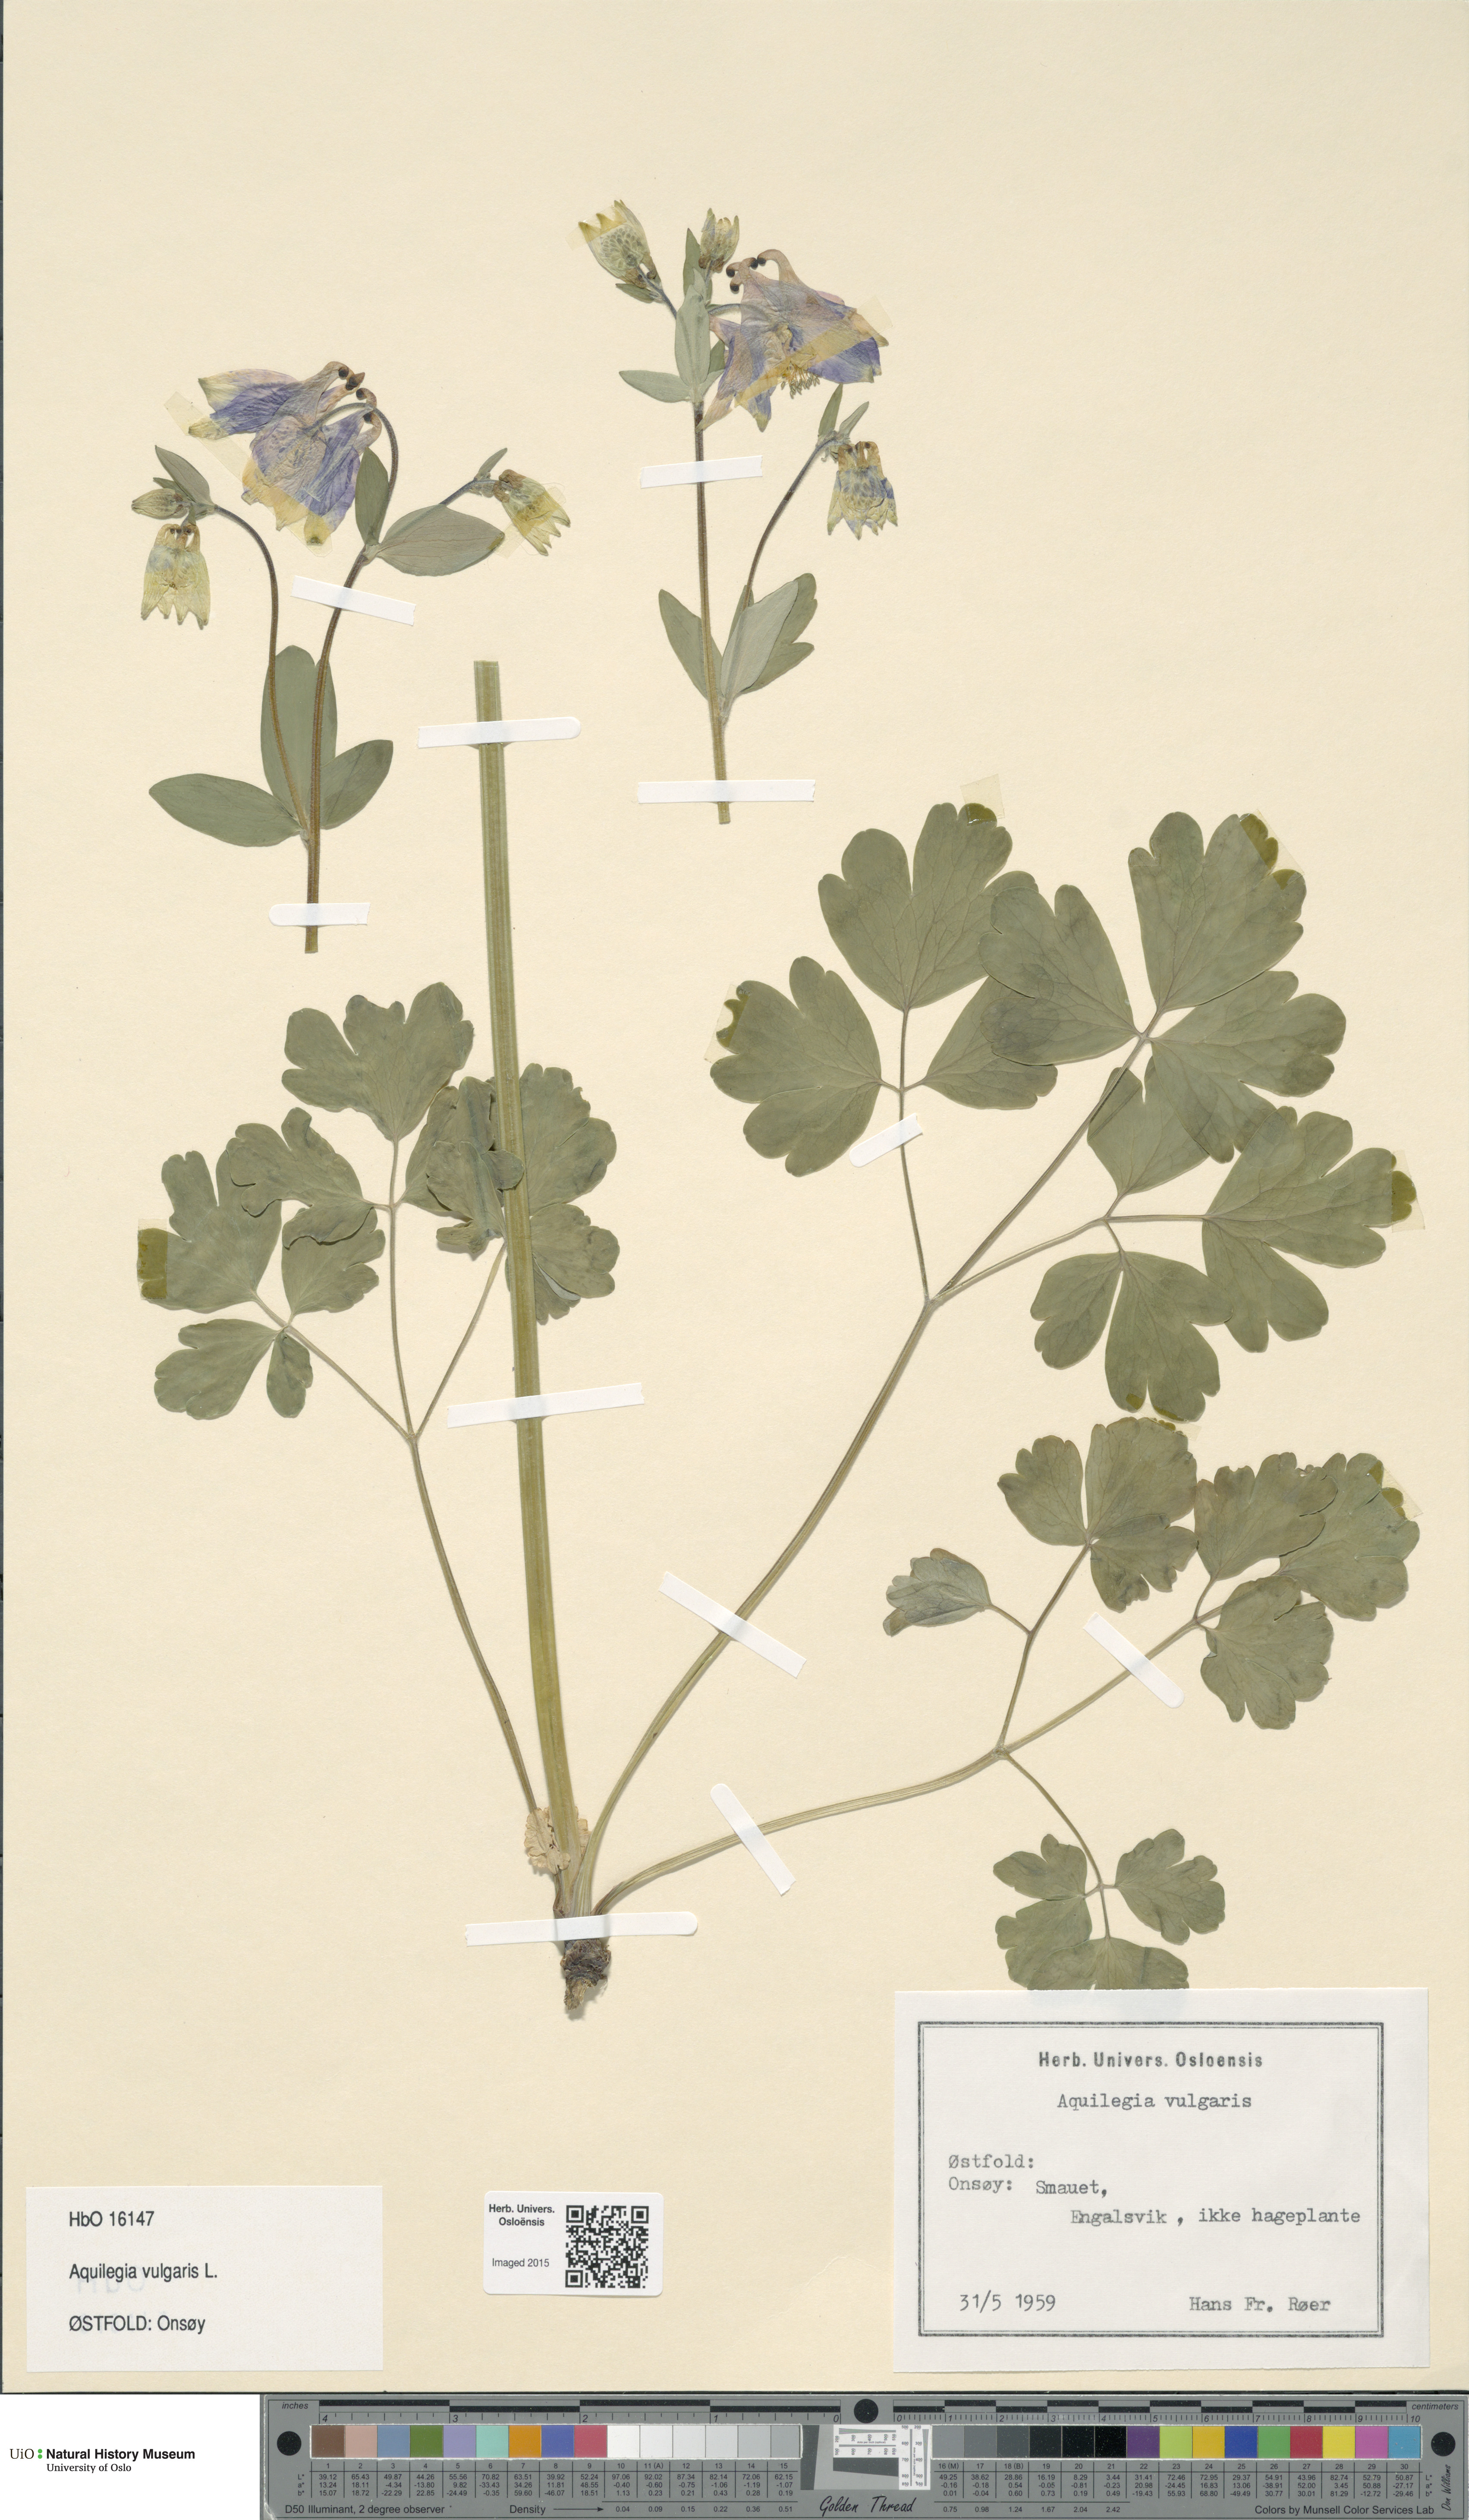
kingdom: Plantae
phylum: Tracheophyta
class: Magnoliopsida
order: Ranunculales
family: Ranunculaceae
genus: Aquilegia
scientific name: Aquilegia vulgaris
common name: Columbine
